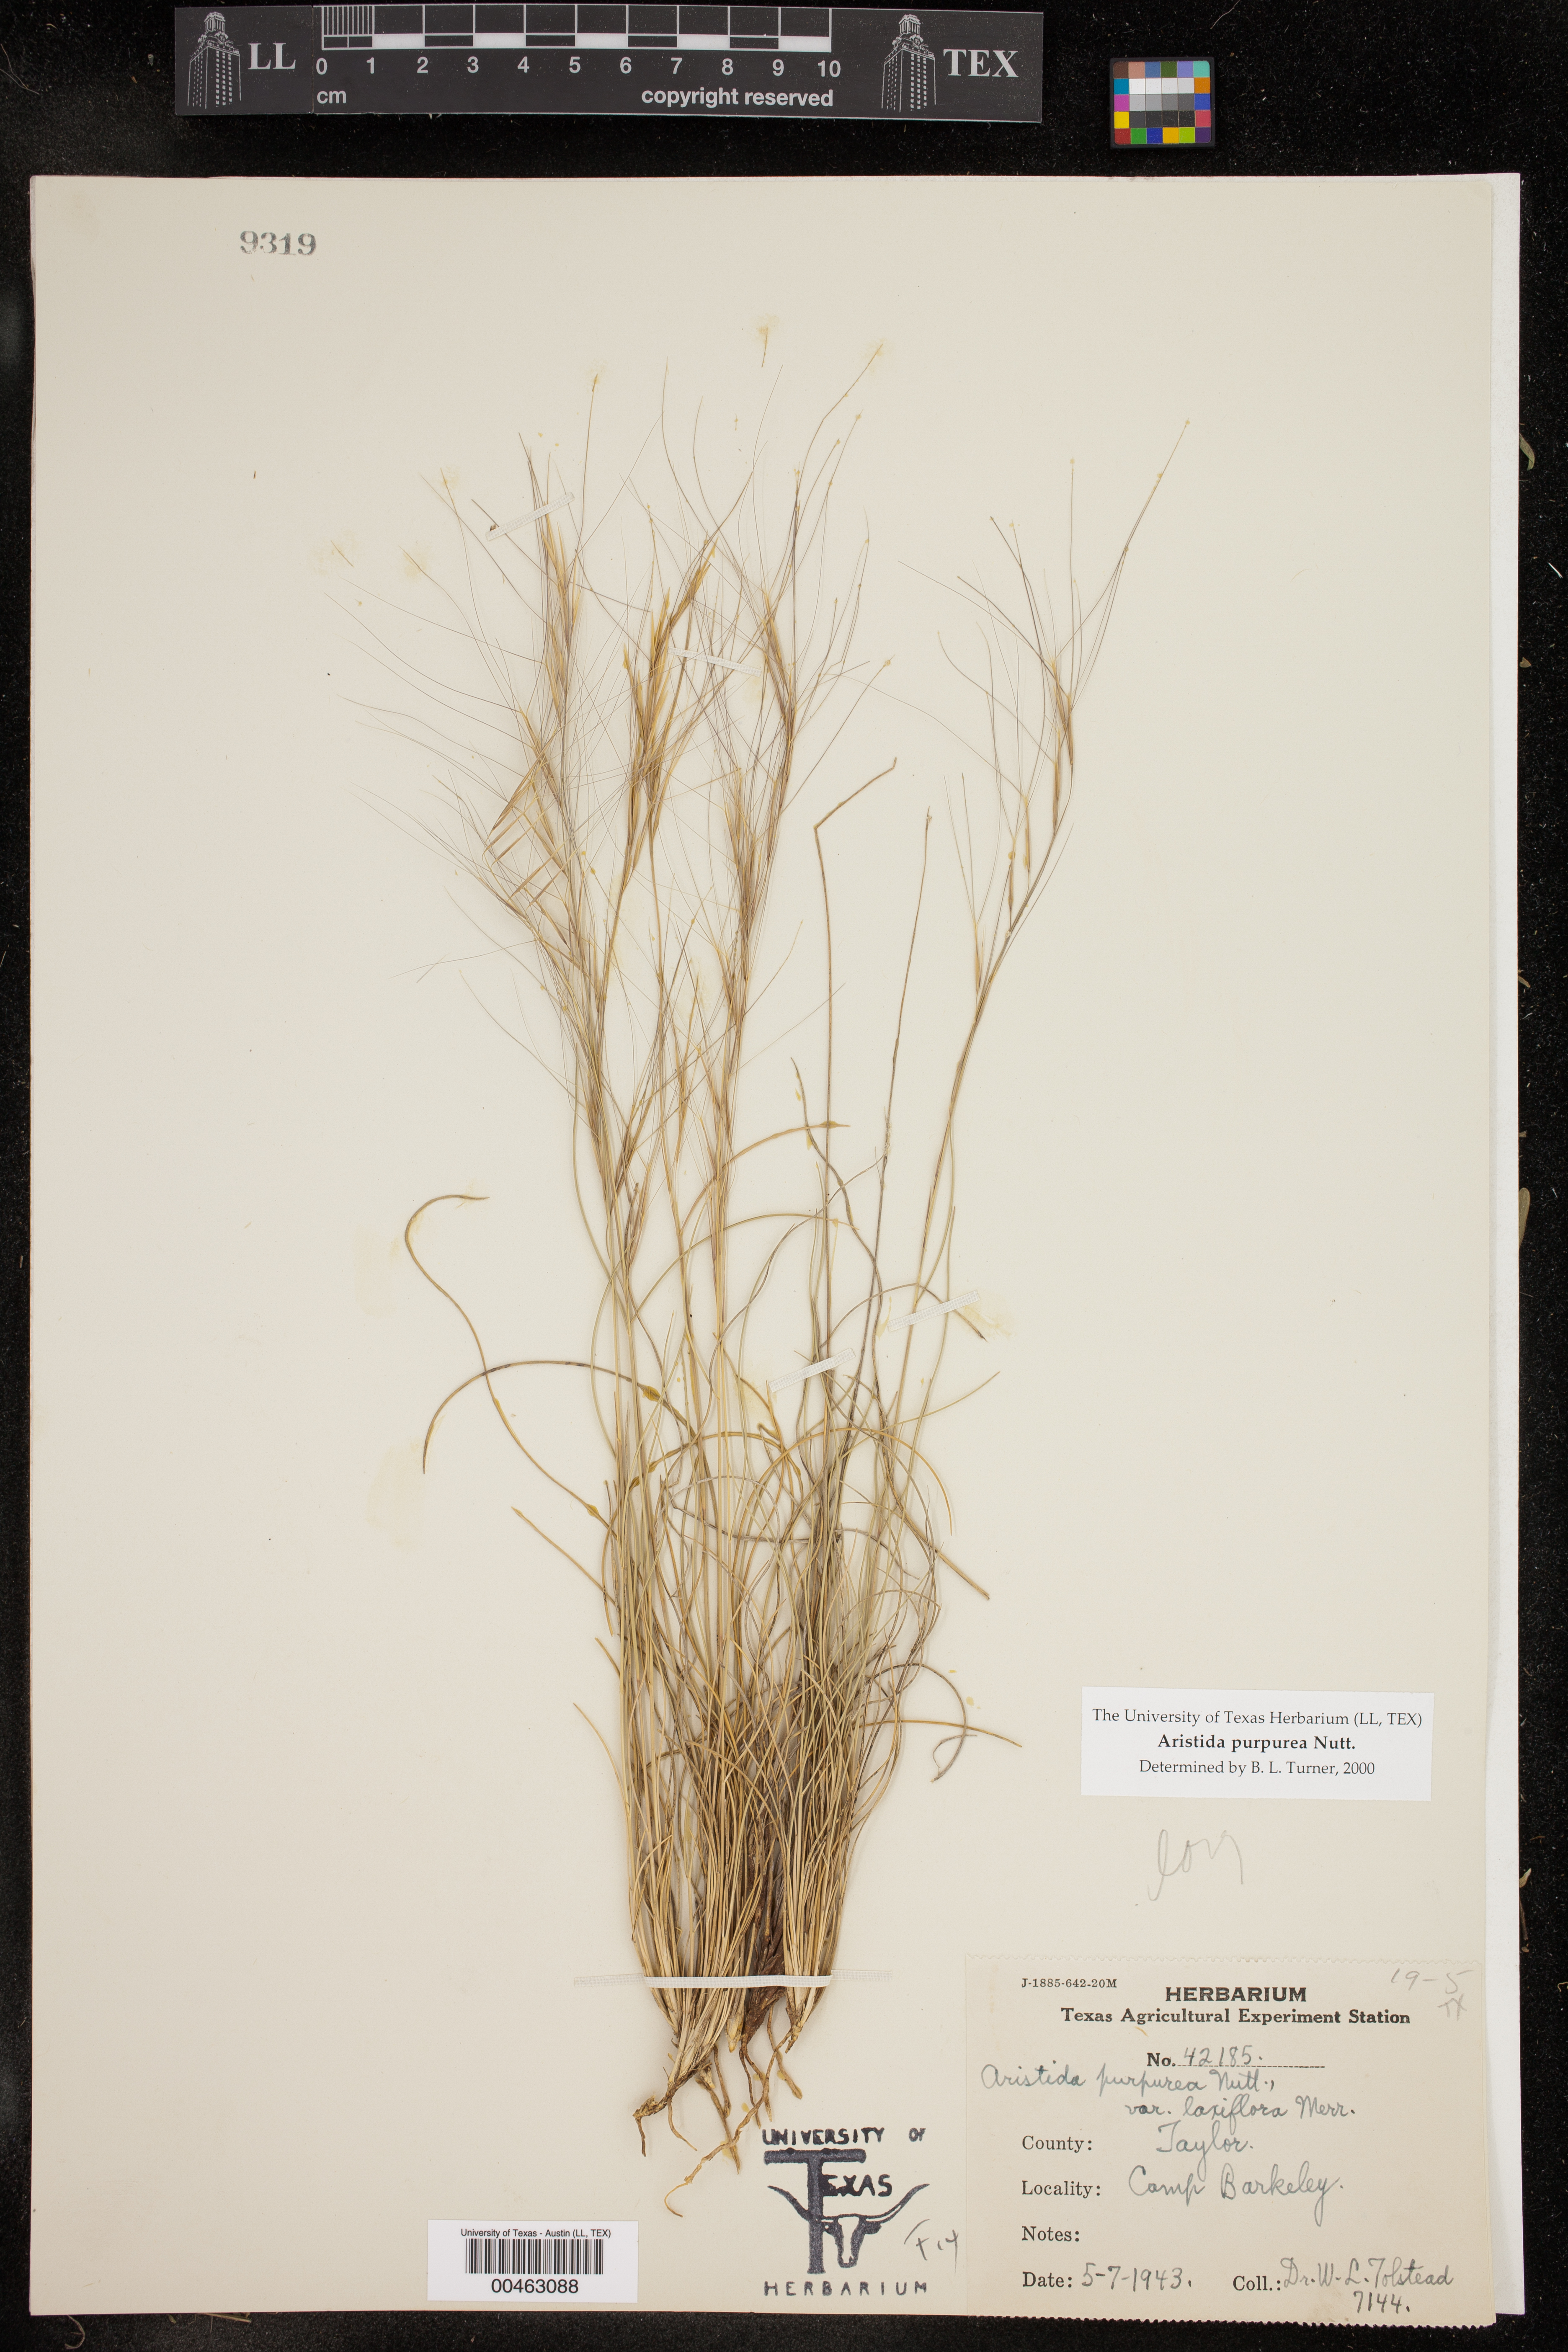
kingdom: Plantae
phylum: Tracheophyta
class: Liliopsida
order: Poales
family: Poaceae
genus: Aristida
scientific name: Aristida purpurea
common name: Purple threeawn
